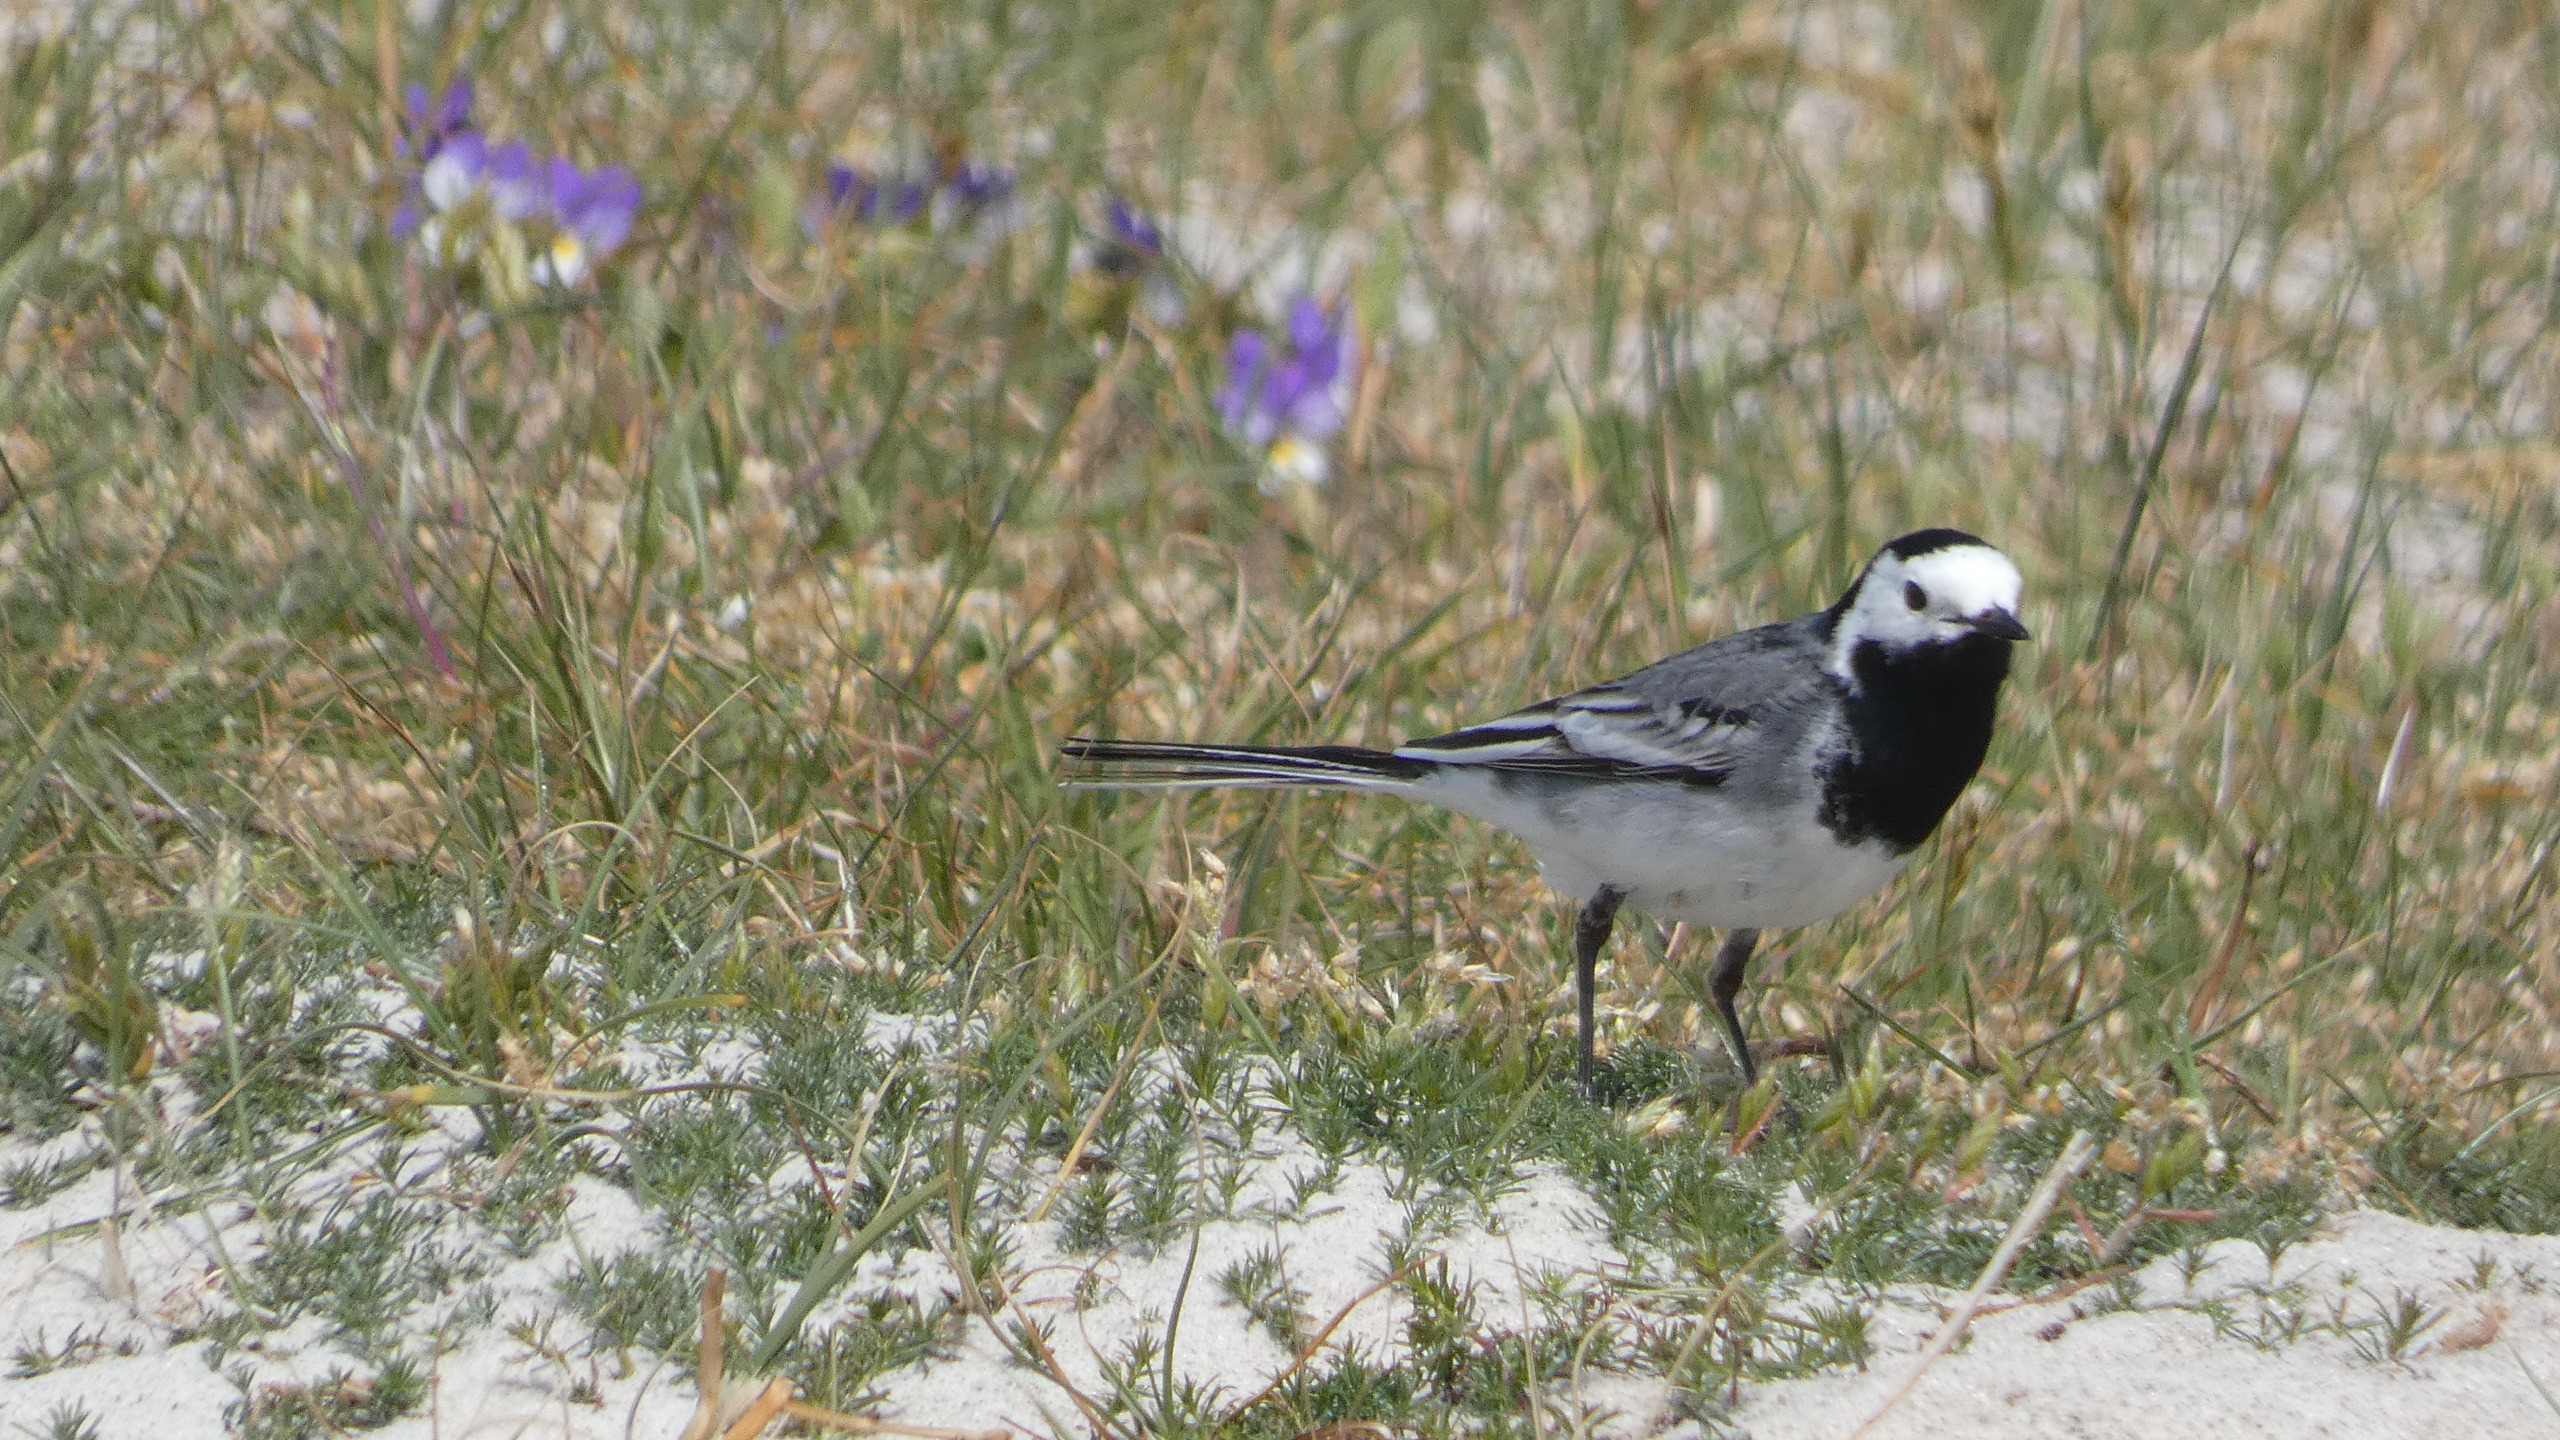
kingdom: Animalia
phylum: Chordata
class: Aves
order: Passeriformes
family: Motacillidae
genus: Motacilla
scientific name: Motacilla alba
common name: Hvid vipstjert
